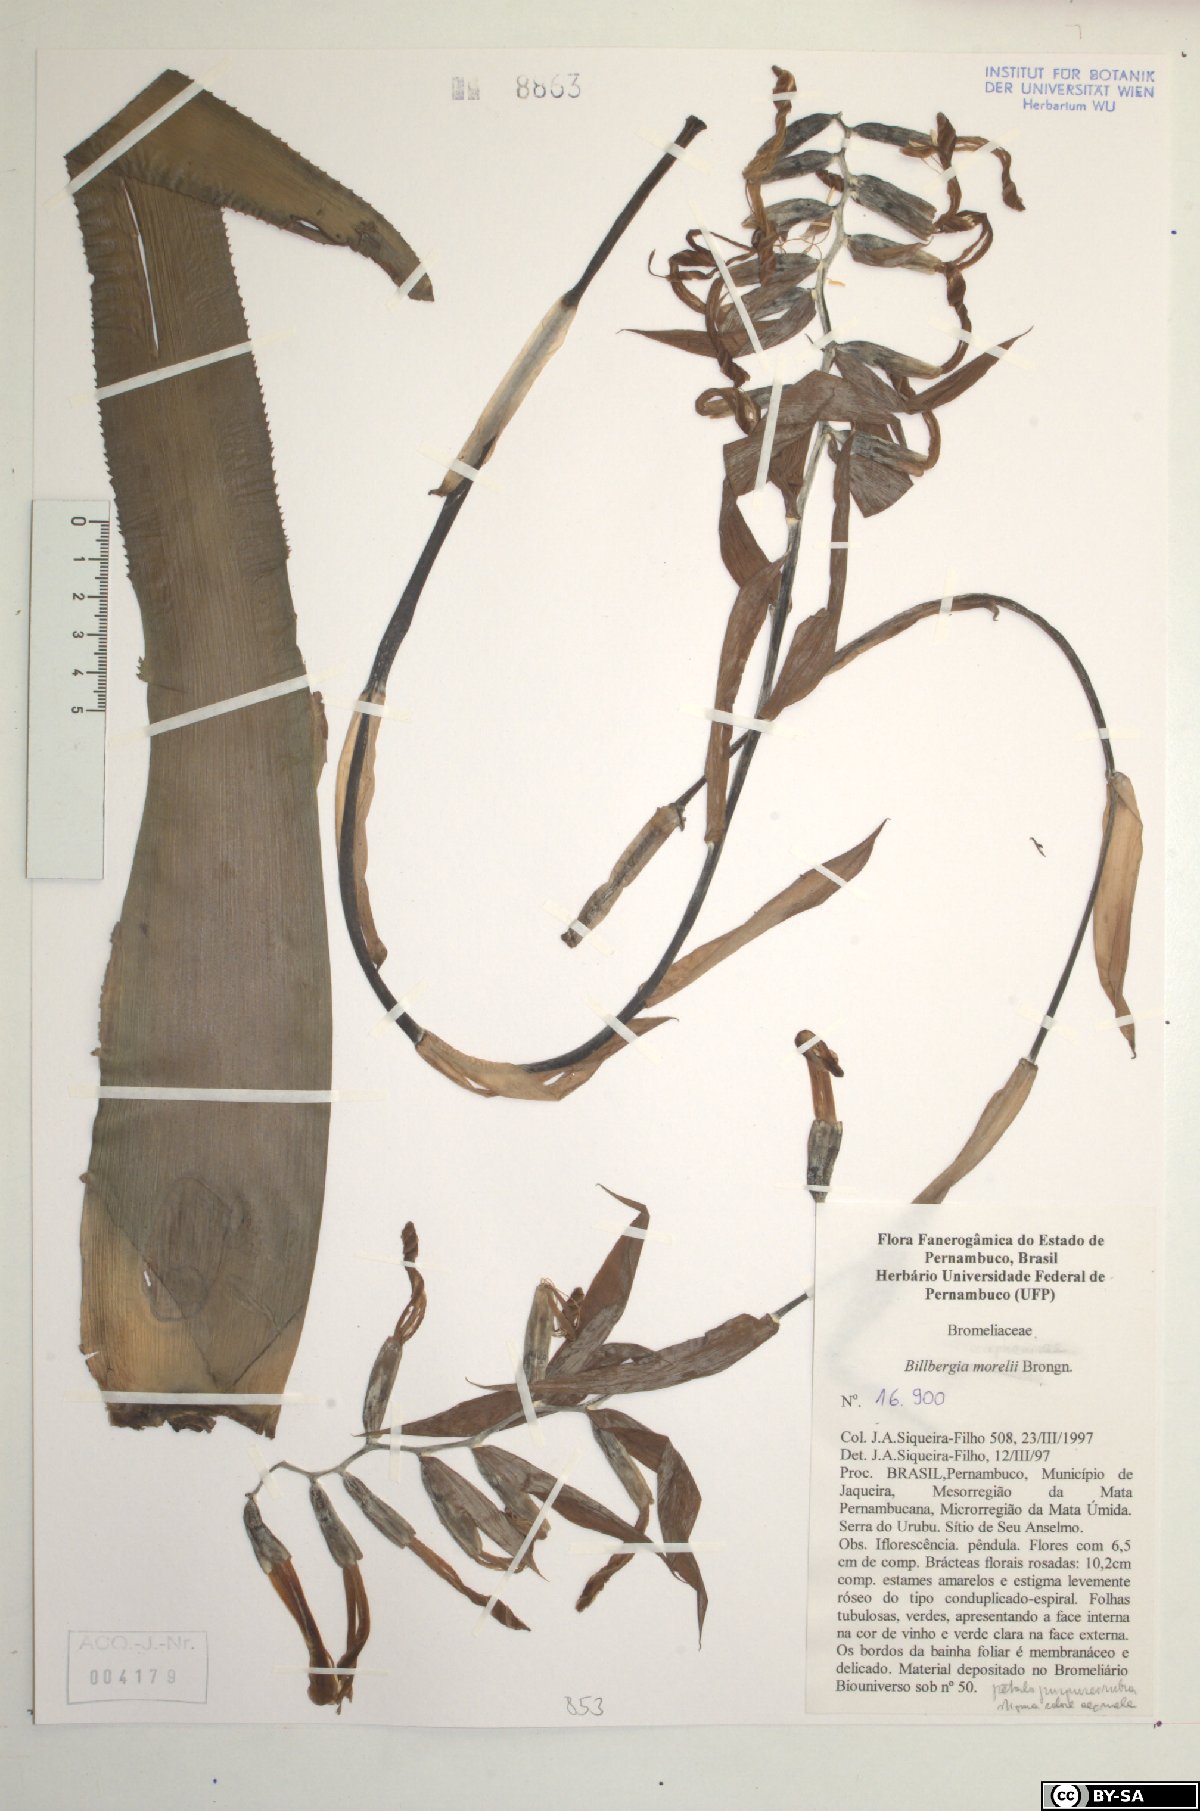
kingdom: Plantae
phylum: Tracheophyta
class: Liliopsida
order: Poales
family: Bromeliaceae
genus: Billbergia
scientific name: Billbergia morelii
